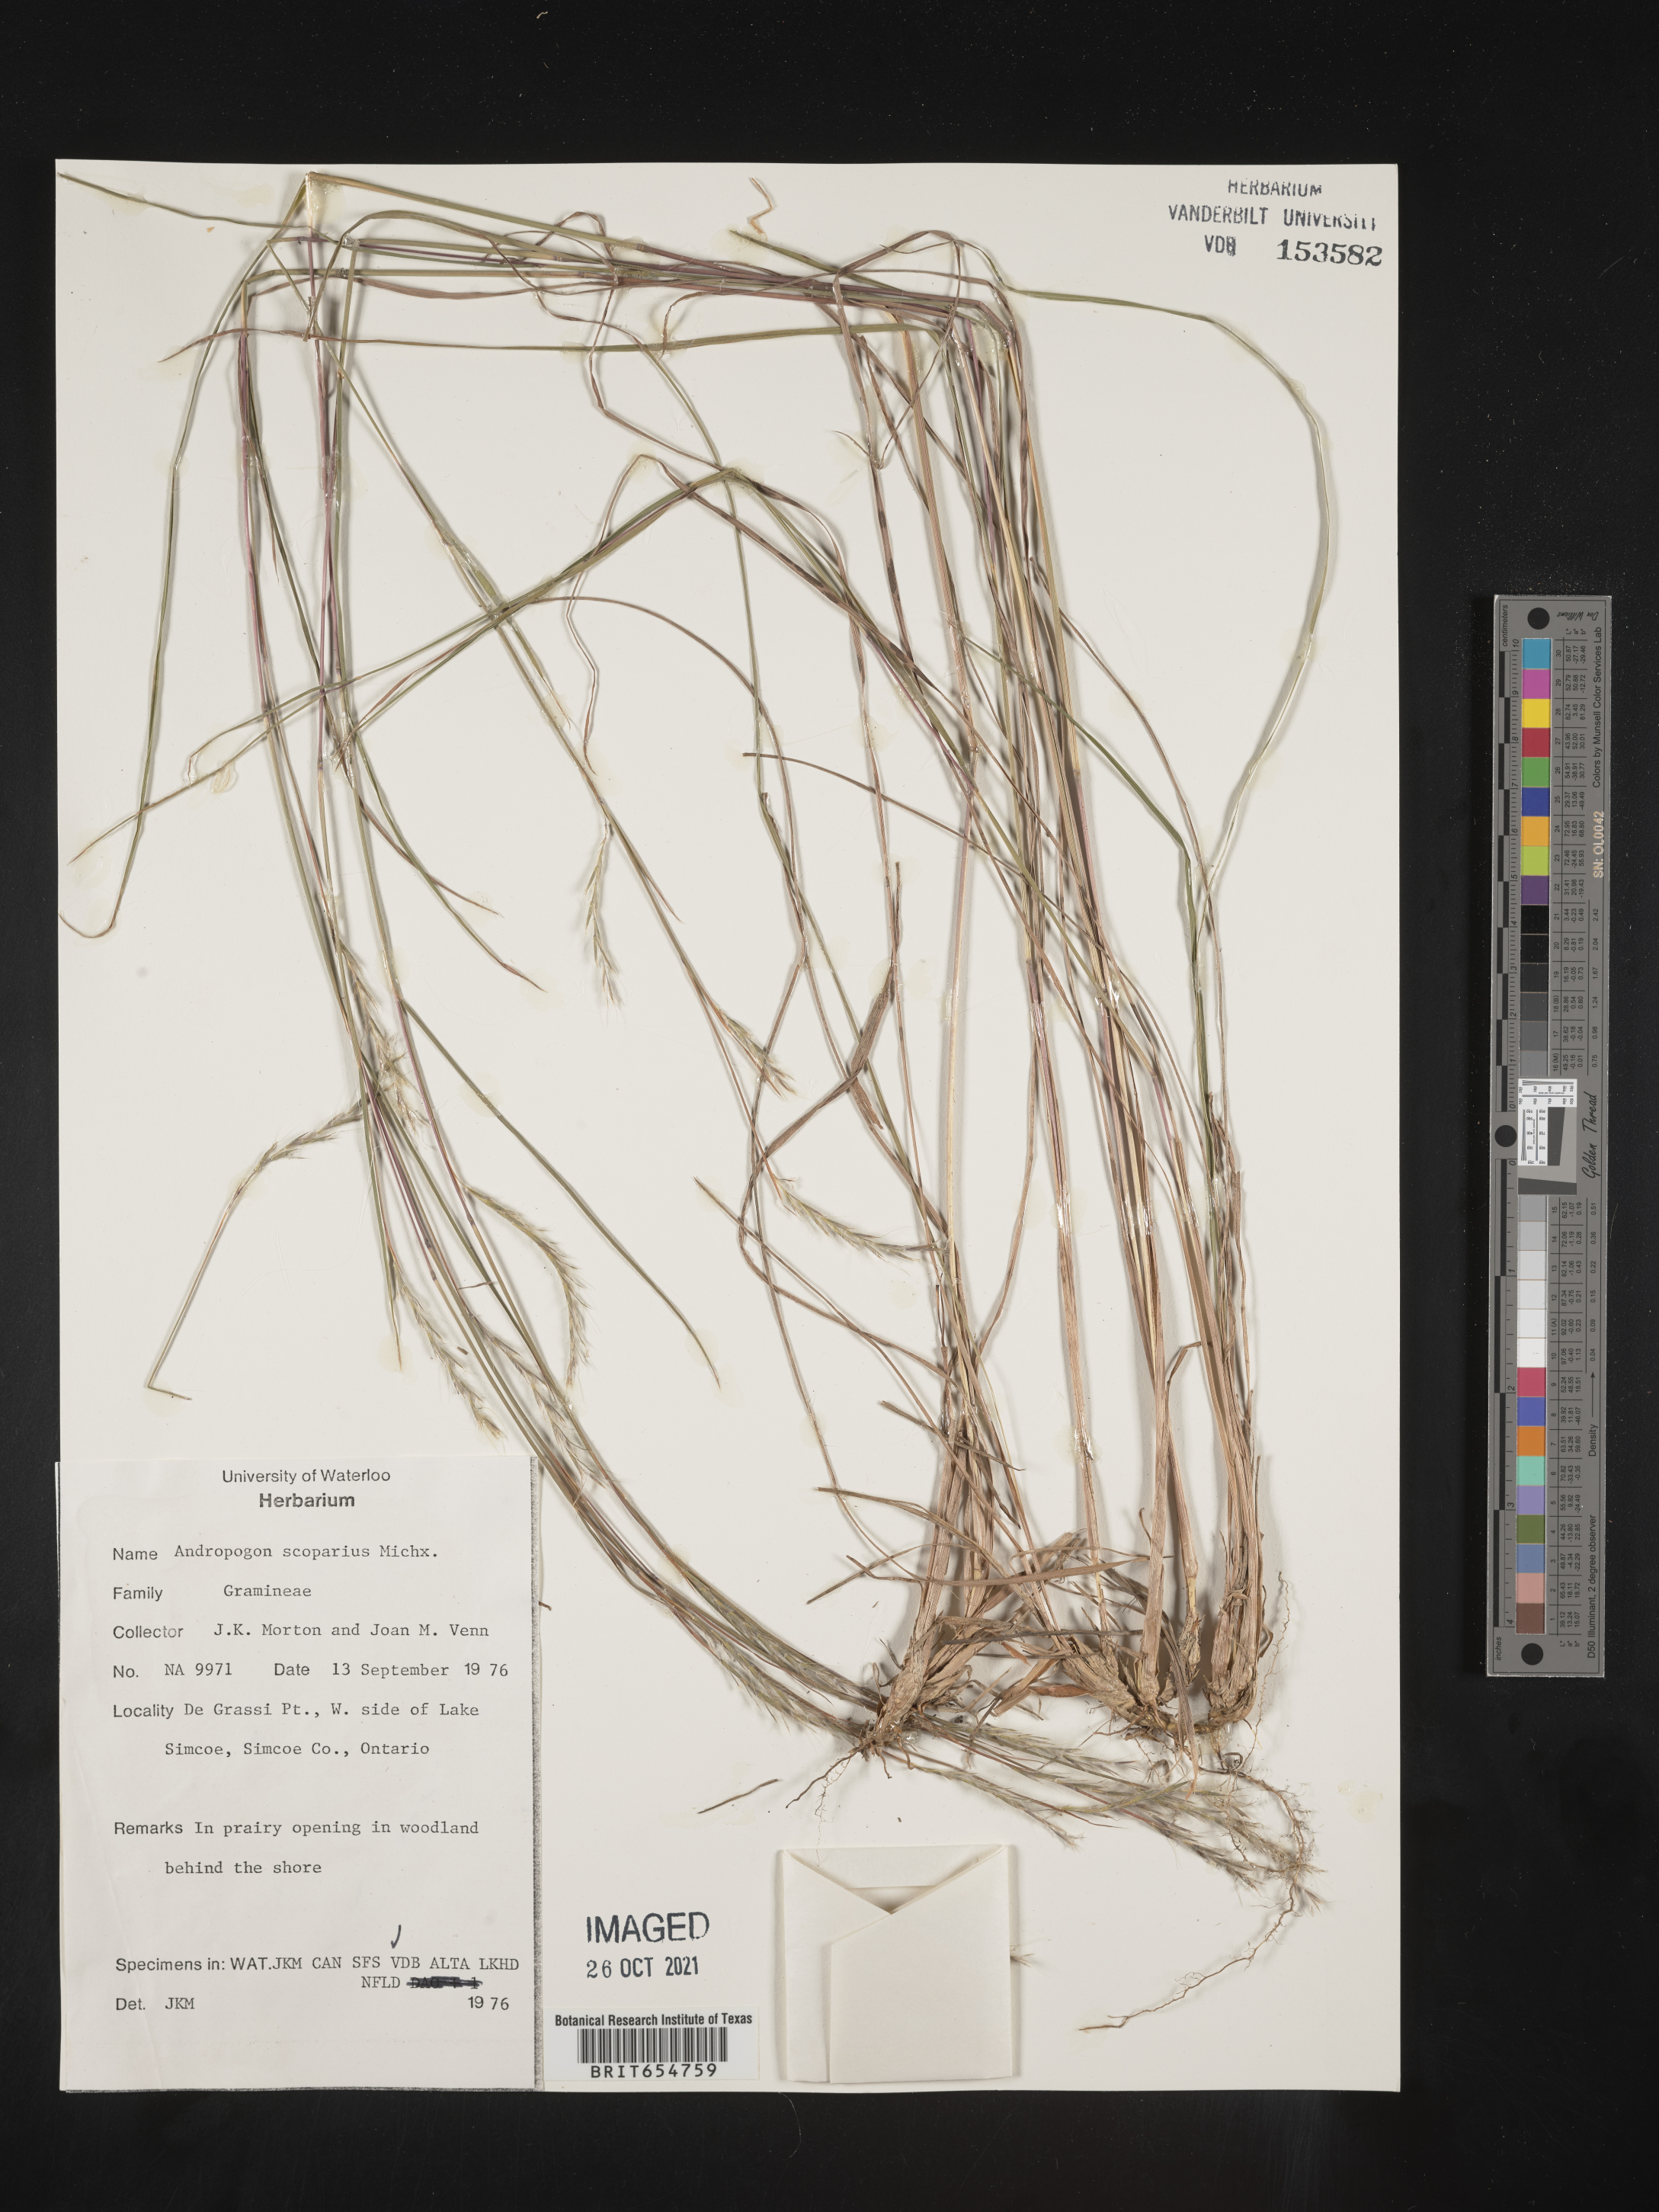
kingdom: Plantae
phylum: Tracheophyta
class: Liliopsida
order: Poales
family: Poaceae
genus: Andropogon
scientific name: Andropogon
